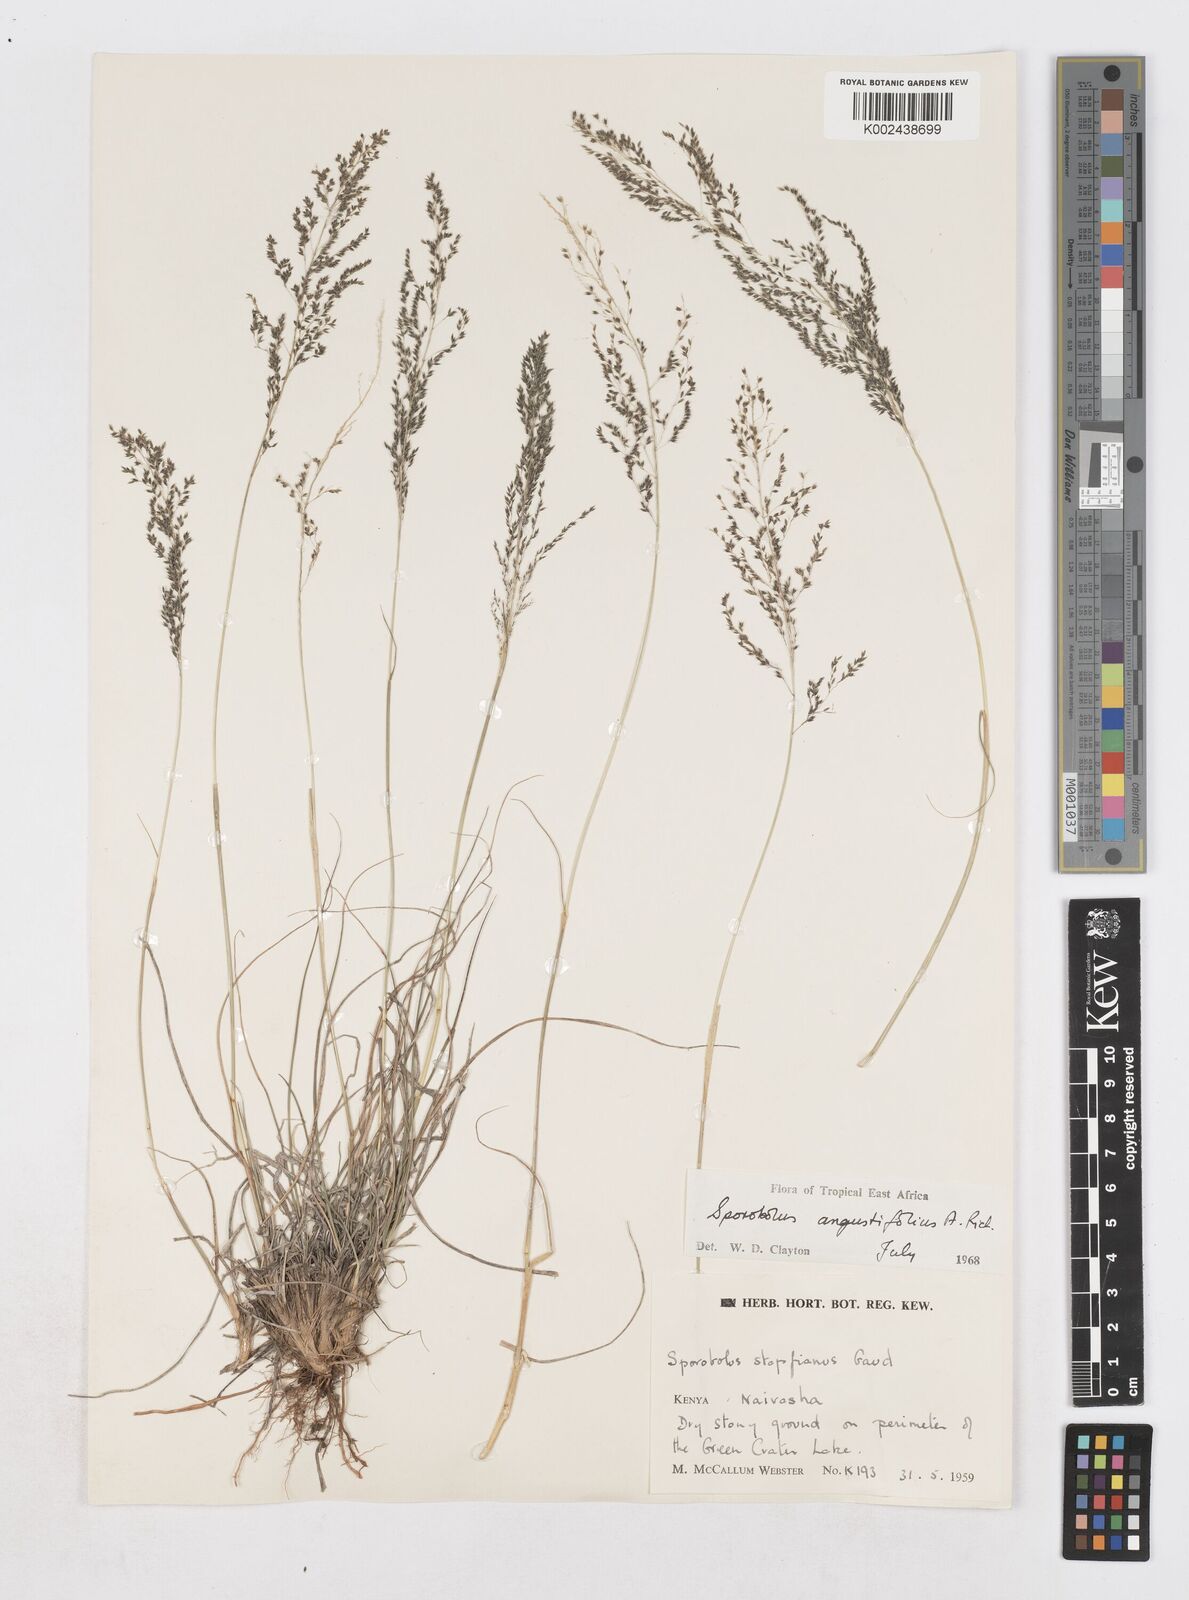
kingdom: Plantae
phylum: Tracheophyta
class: Liliopsida
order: Poales
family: Poaceae
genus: Sporobolus
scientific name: Sporobolus angustifolius
